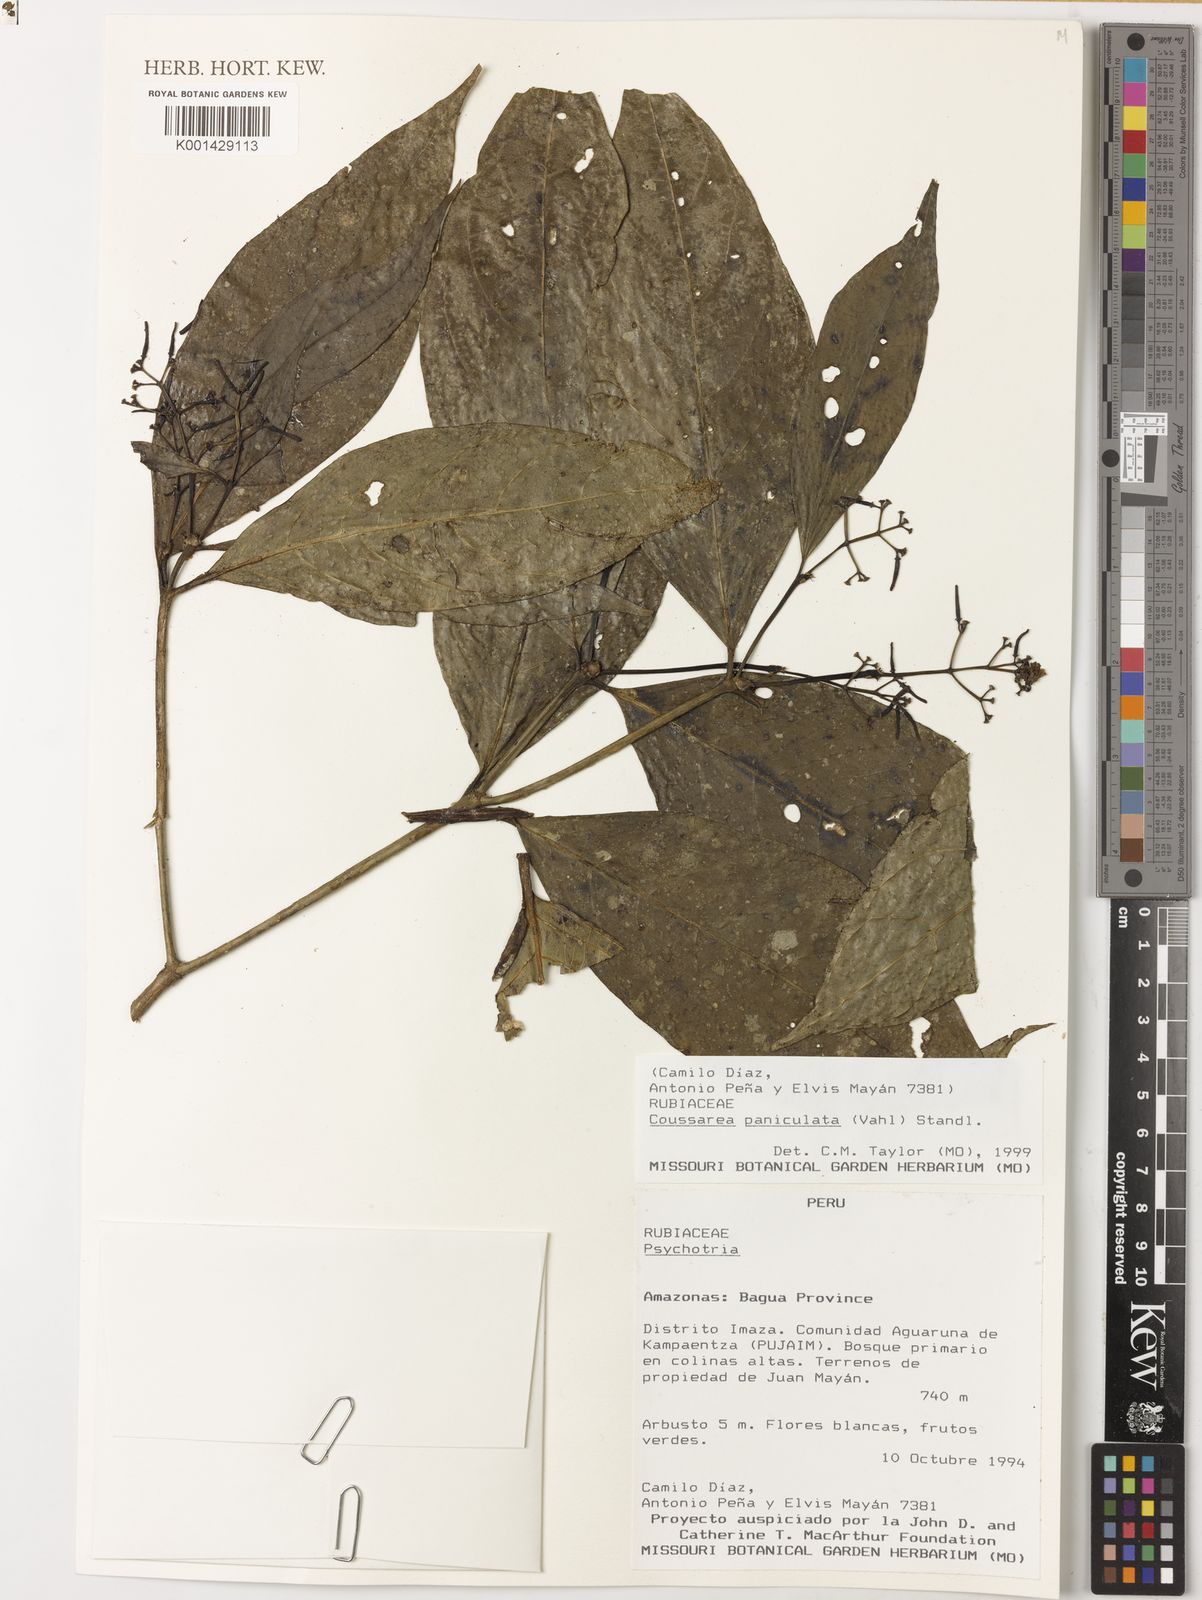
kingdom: Plantae
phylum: Tracheophyta
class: Magnoliopsida
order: Gentianales
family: Rubiaceae
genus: Coussarea
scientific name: Coussarea paniculata
